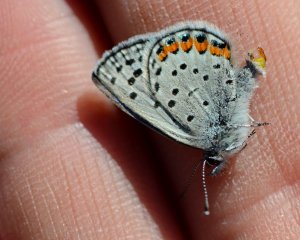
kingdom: Animalia
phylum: Arthropoda
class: Insecta
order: Lepidoptera
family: Lycaenidae
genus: Plebejus
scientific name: Plebejus lupini
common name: Lupine Blue
